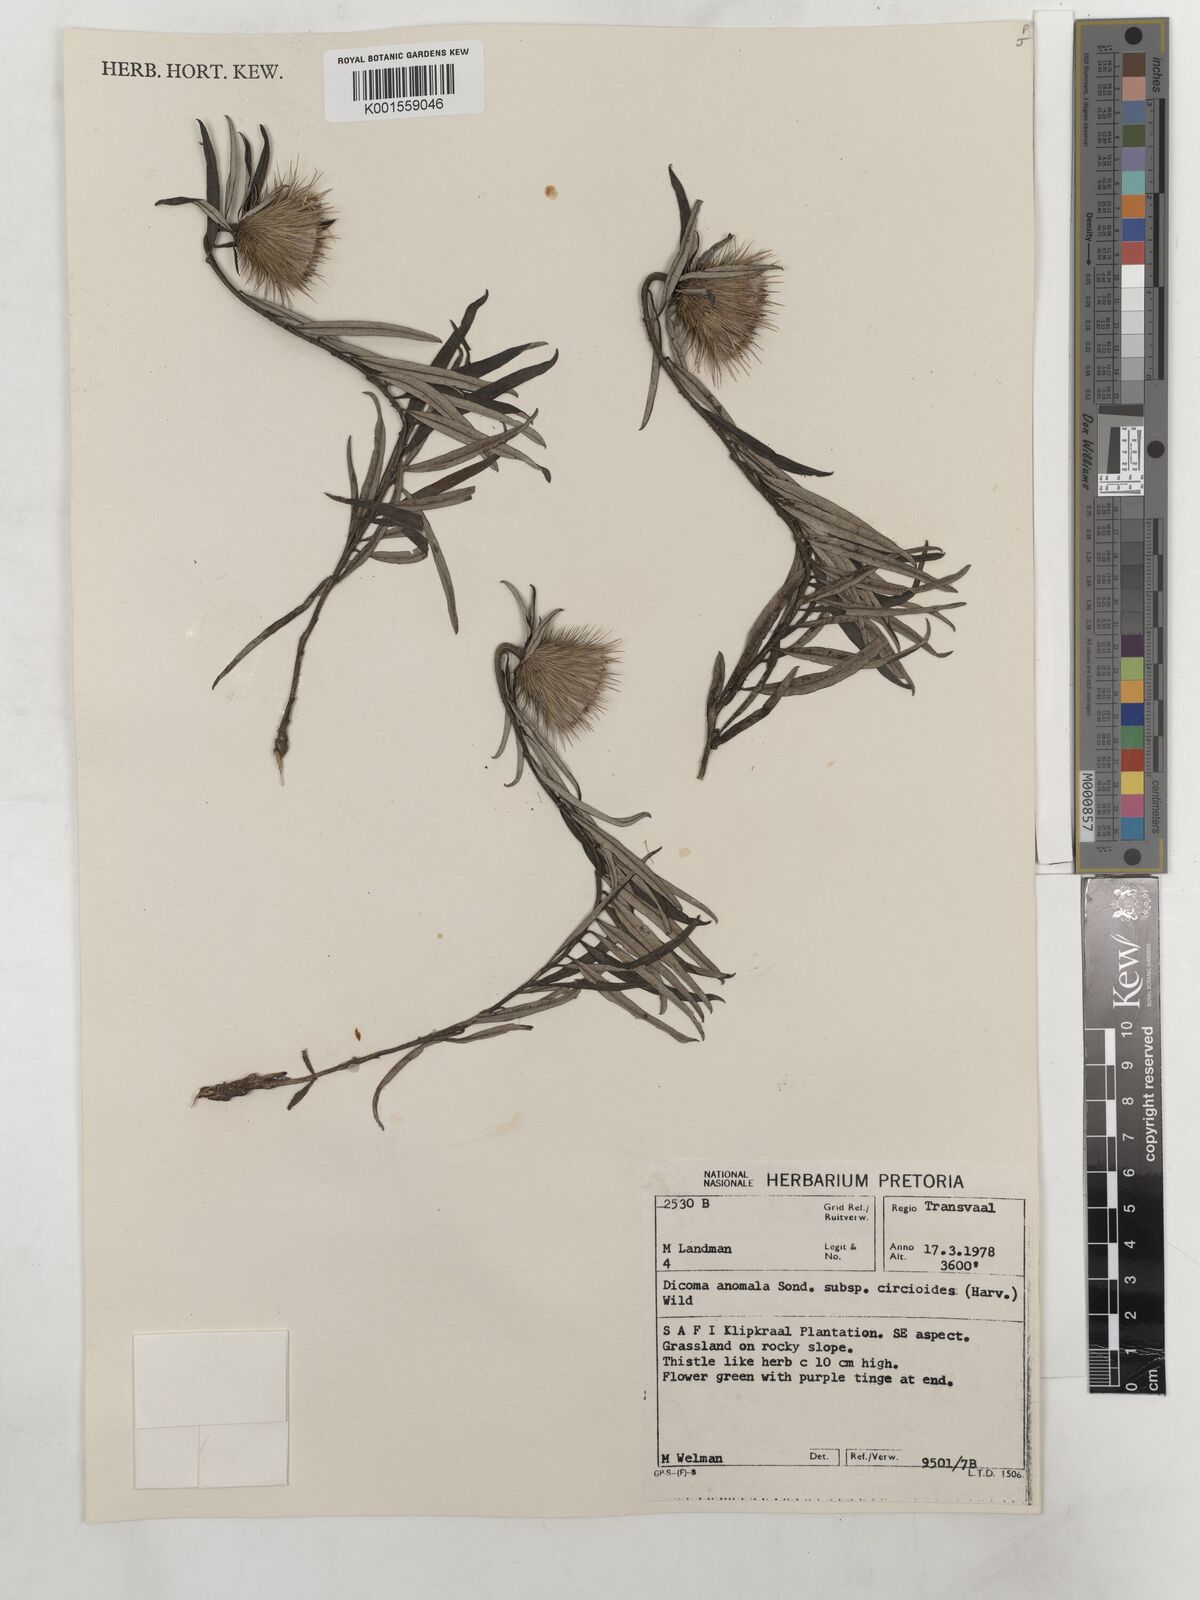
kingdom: Plantae
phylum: Tracheophyta
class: Magnoliopsida
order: Asterales
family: Asteraceae
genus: Dicoma
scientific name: Dicoma anomala
